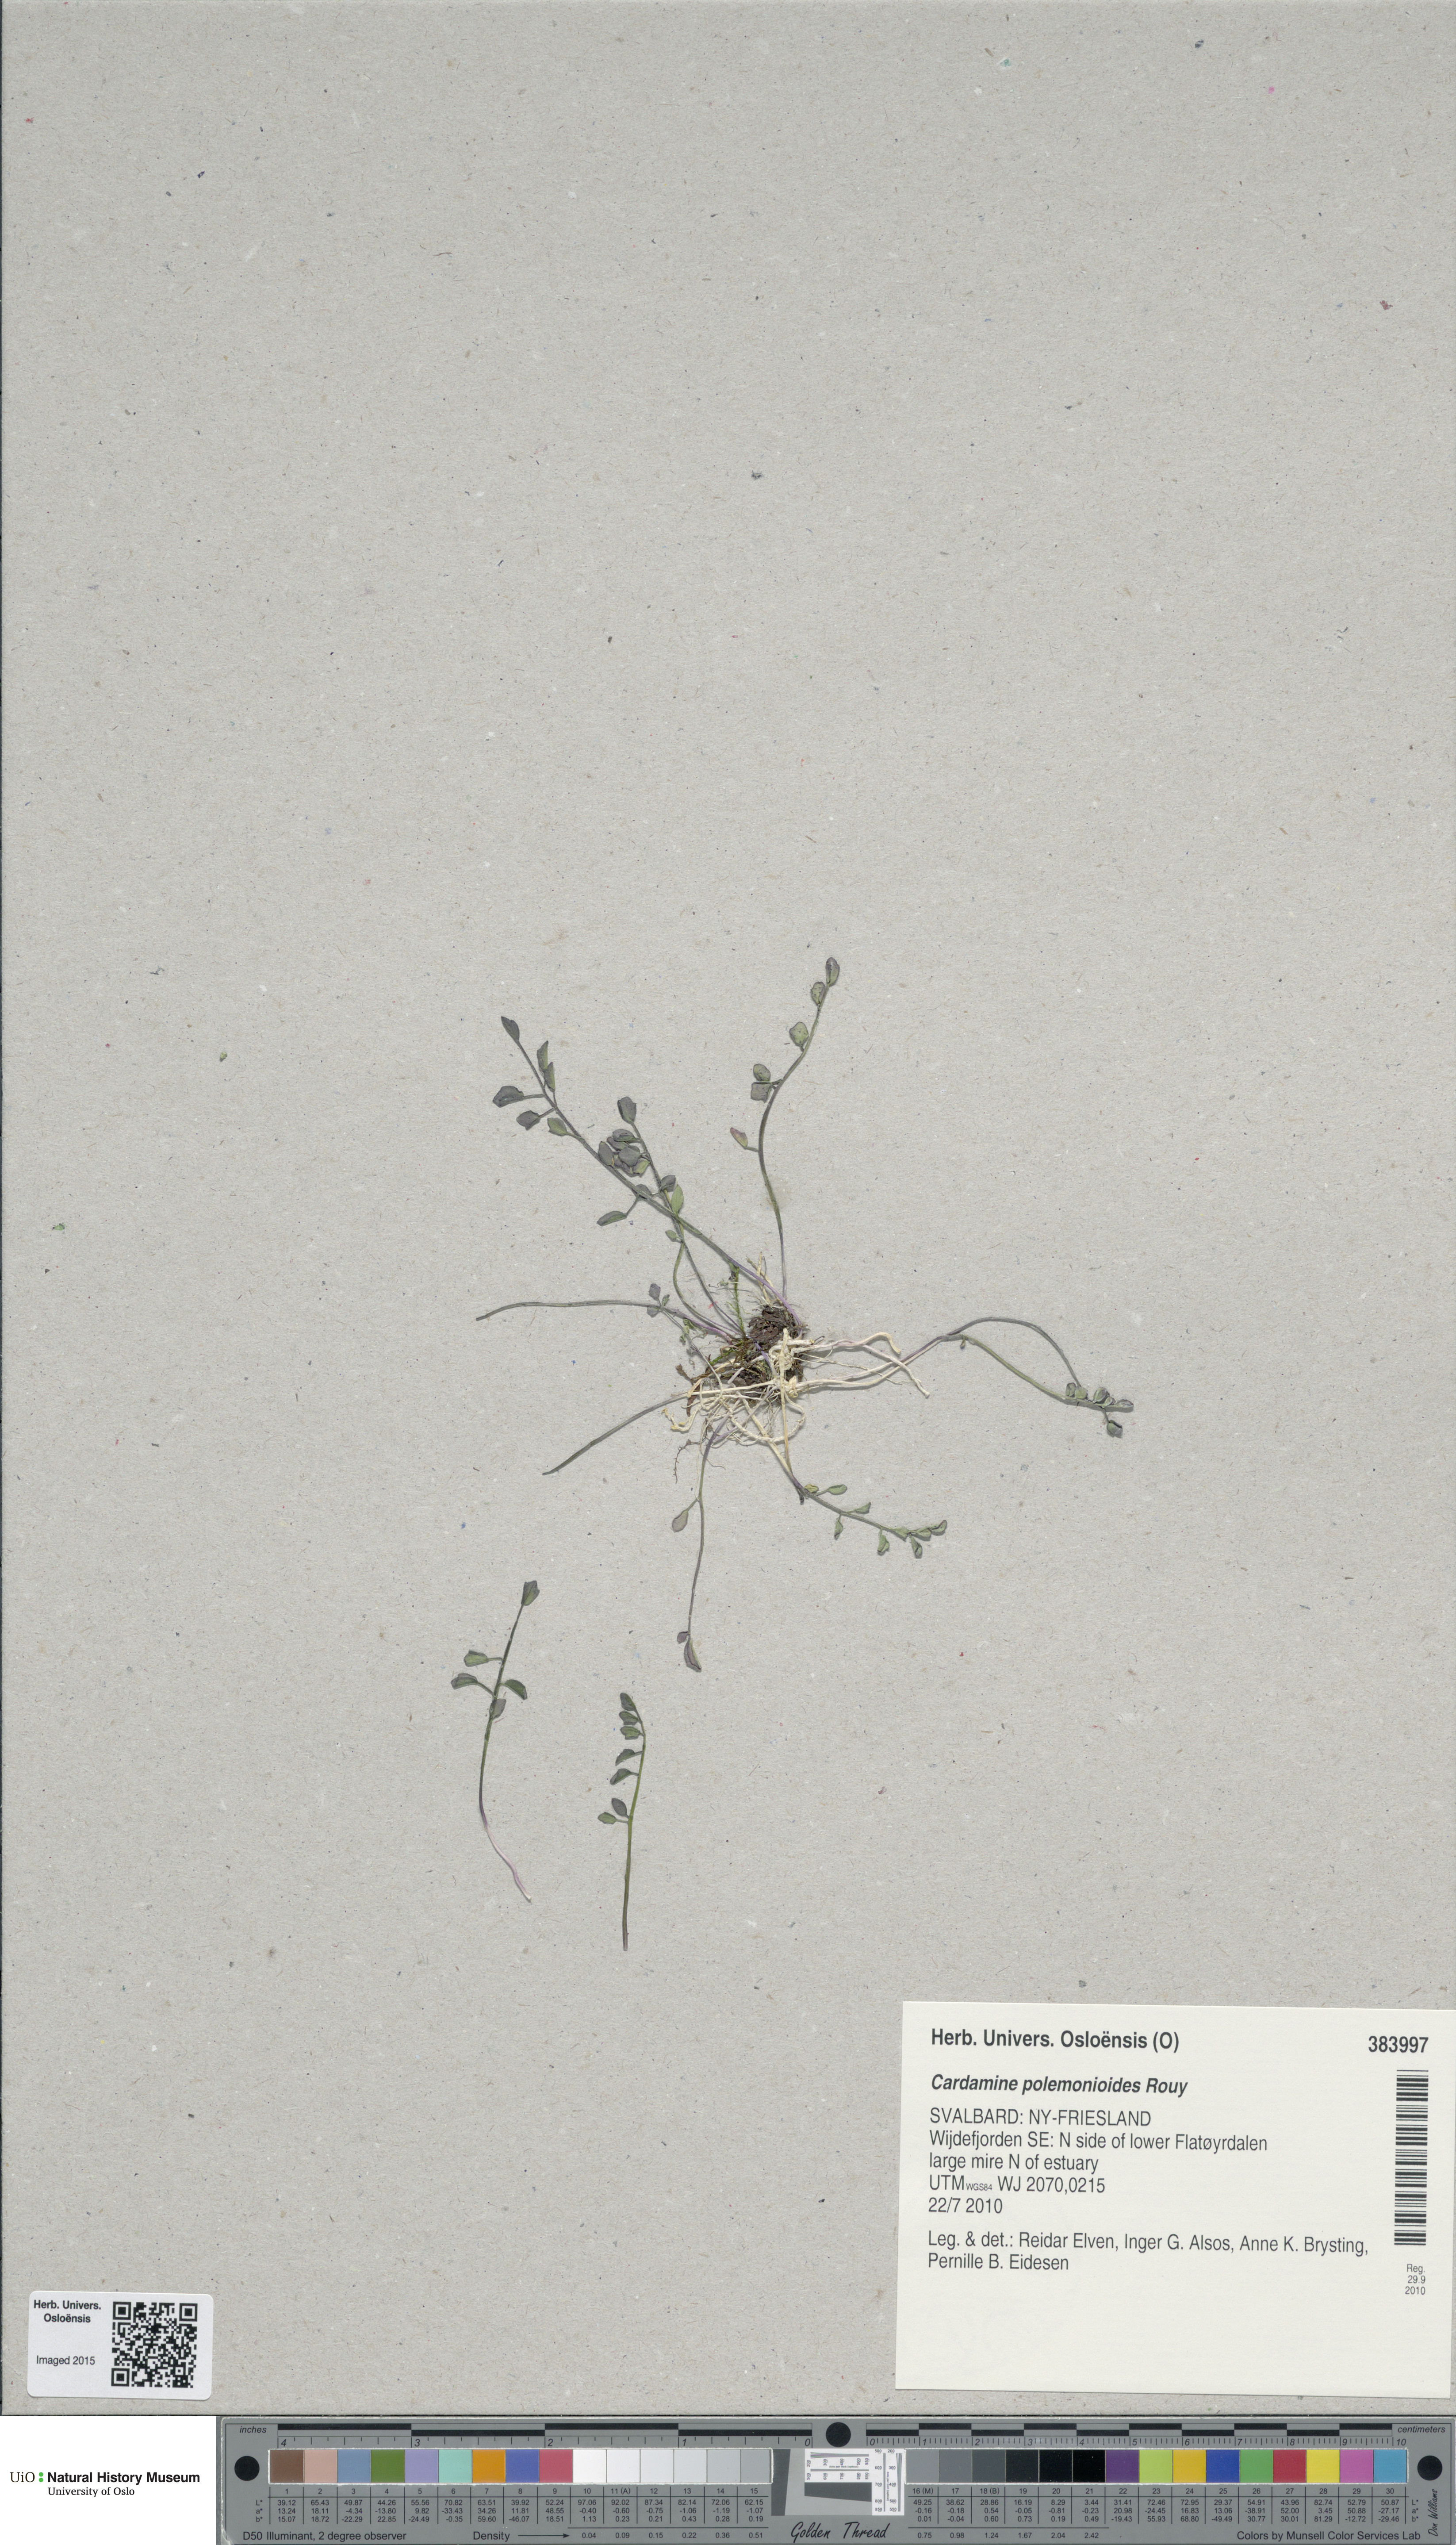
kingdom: Plantae
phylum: Tracheophyta
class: Magnoliopsida
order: Brassicales
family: Brassicaceae
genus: Cardamine
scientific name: Cardamine nymanii
